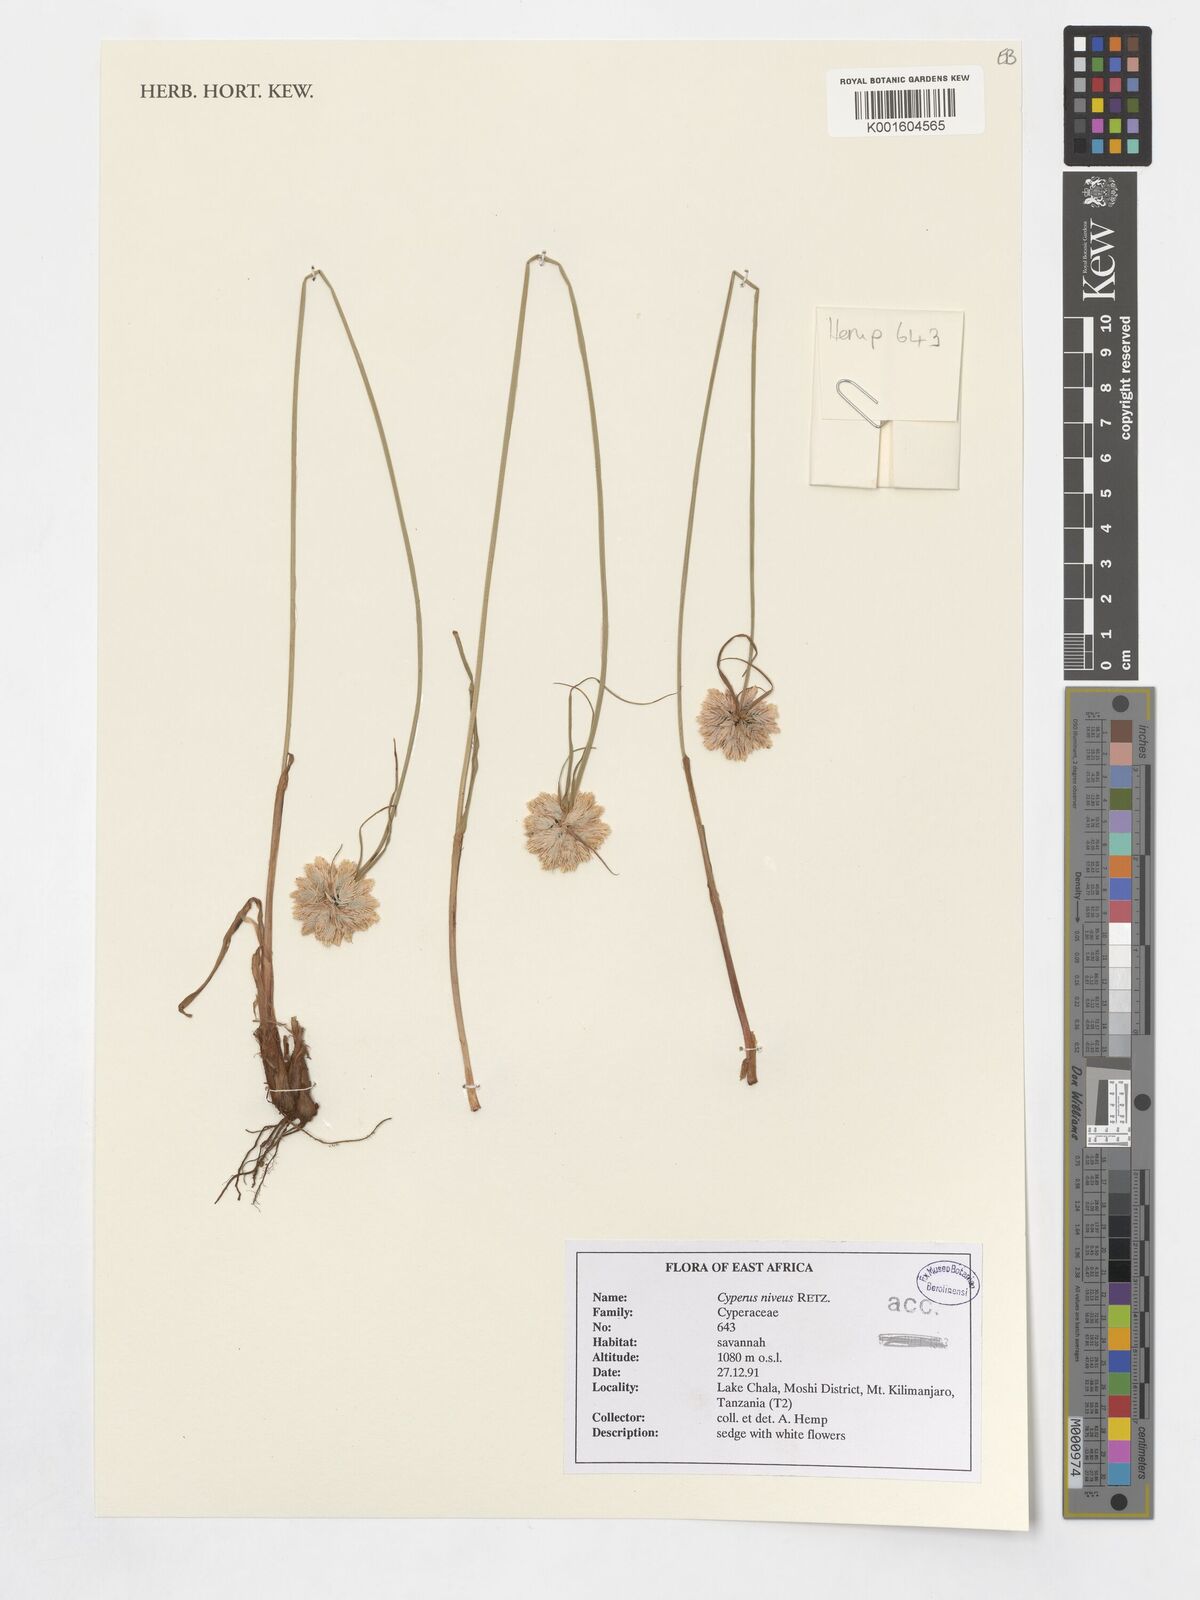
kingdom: Plantae
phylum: Tracheophyta
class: Liliopsida
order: Poales
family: Cyperaceae
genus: Cyperus
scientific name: Cyperus niveus
